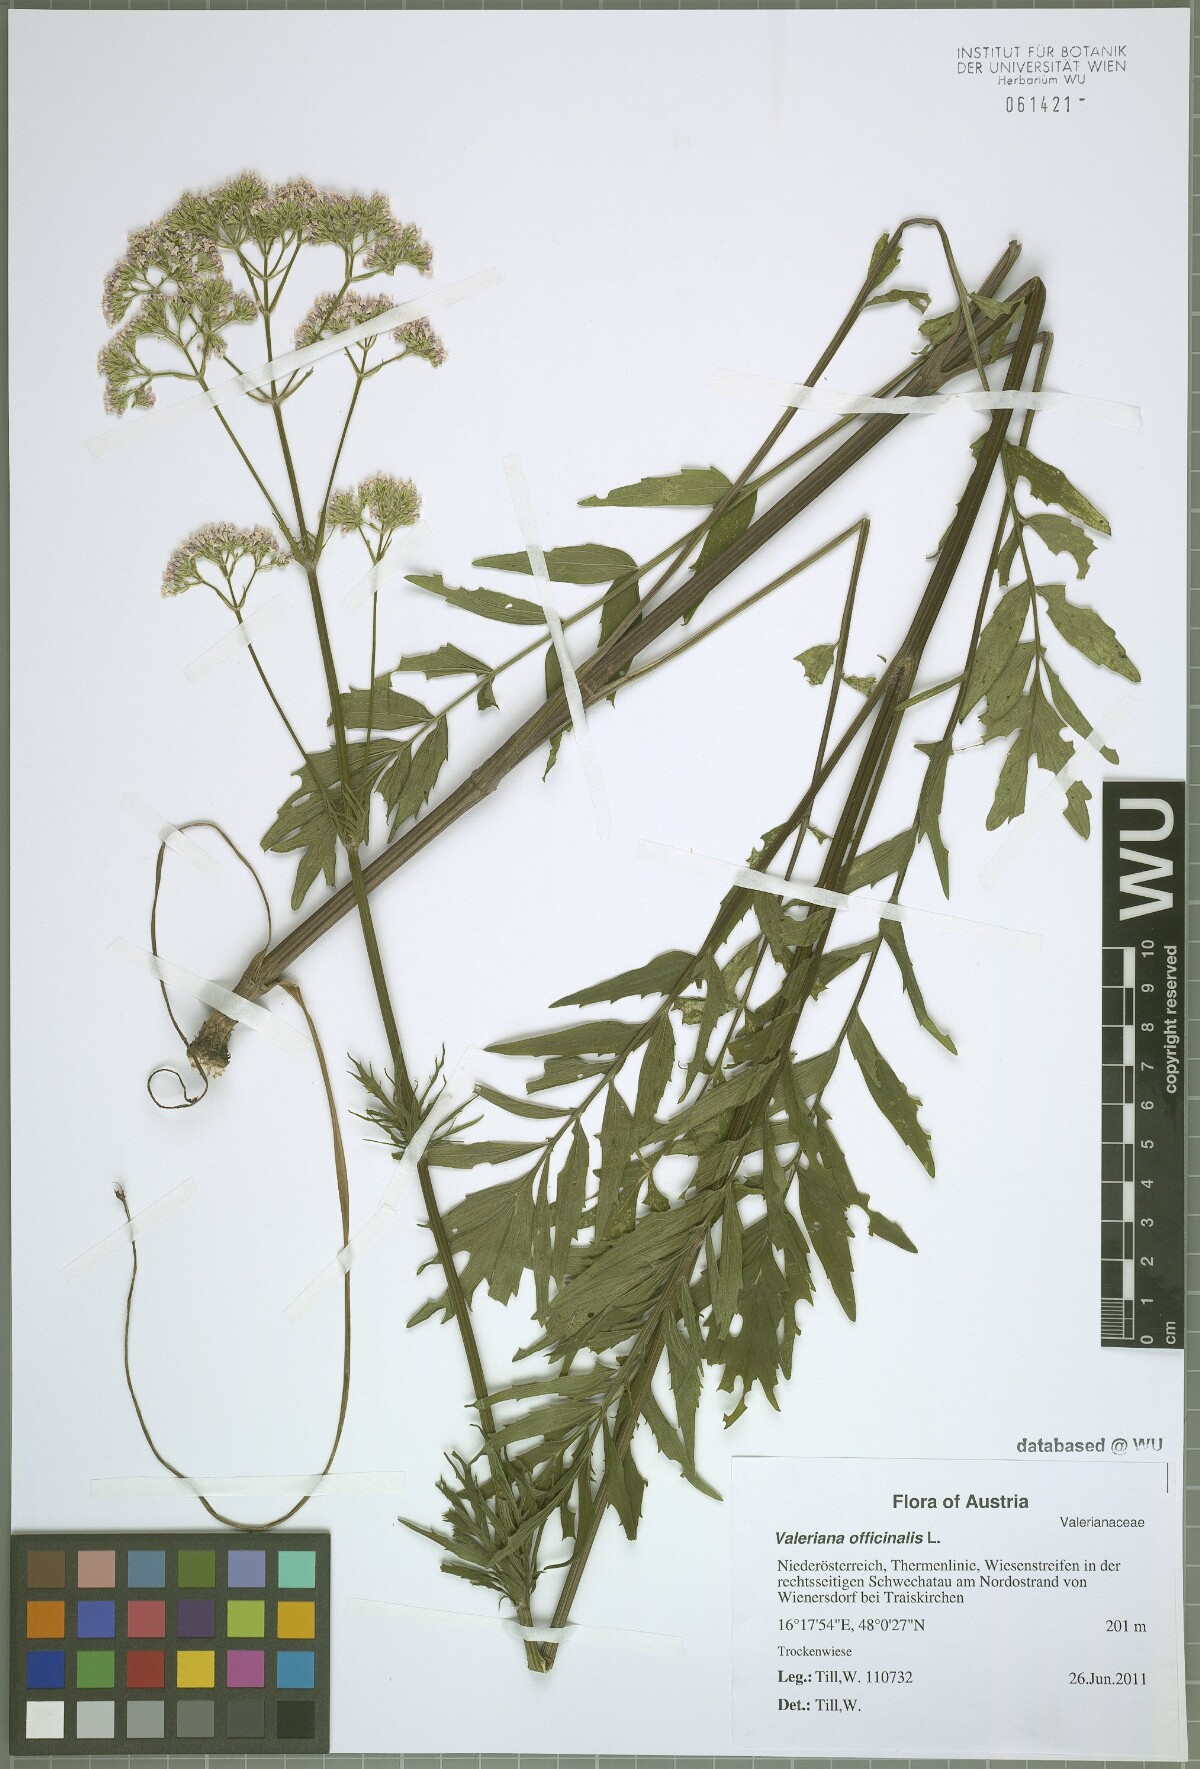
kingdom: Plantae
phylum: Tracheophyta
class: Magnoliopsida
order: Dipsacales
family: Caprifoliaceae
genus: Valeriana
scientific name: Valeriana officinalis
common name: Common valerian
